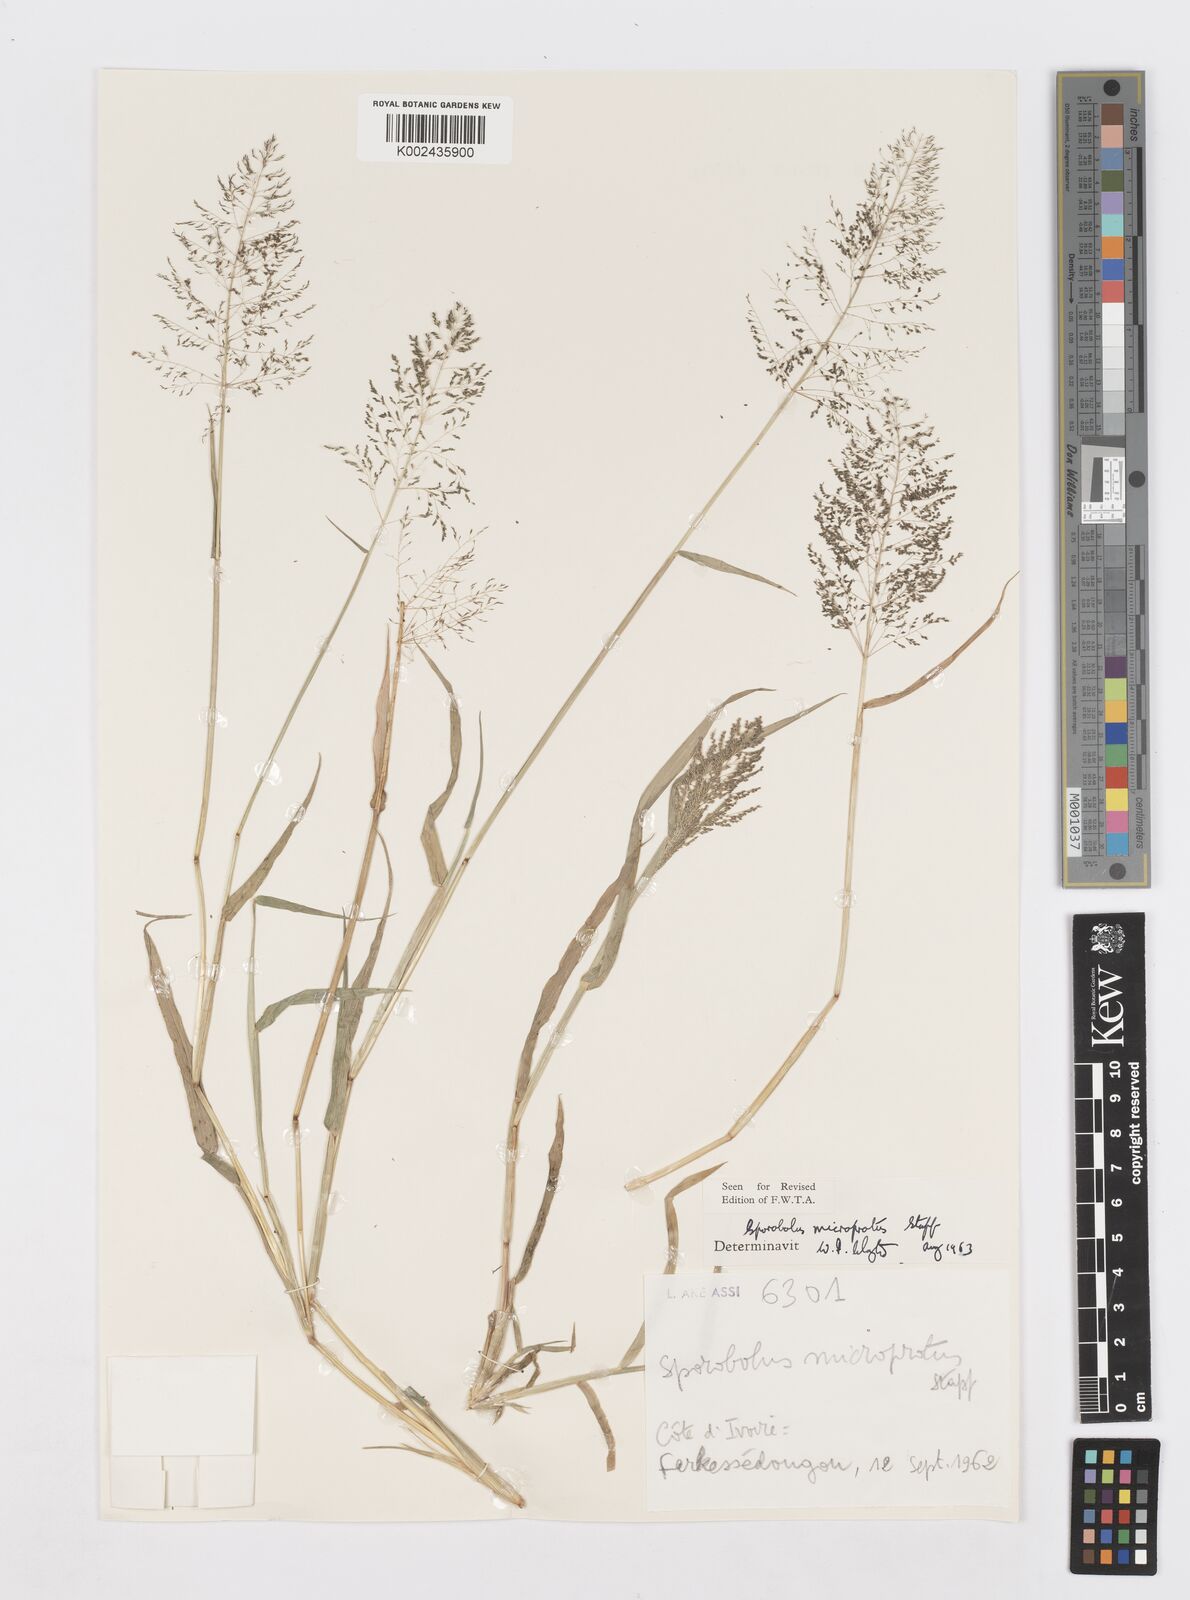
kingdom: Plantae
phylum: Tracheophyta
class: Liliopsida
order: Poales
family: Poaceae
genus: Sporobolus
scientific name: Sporobolus microprotus
